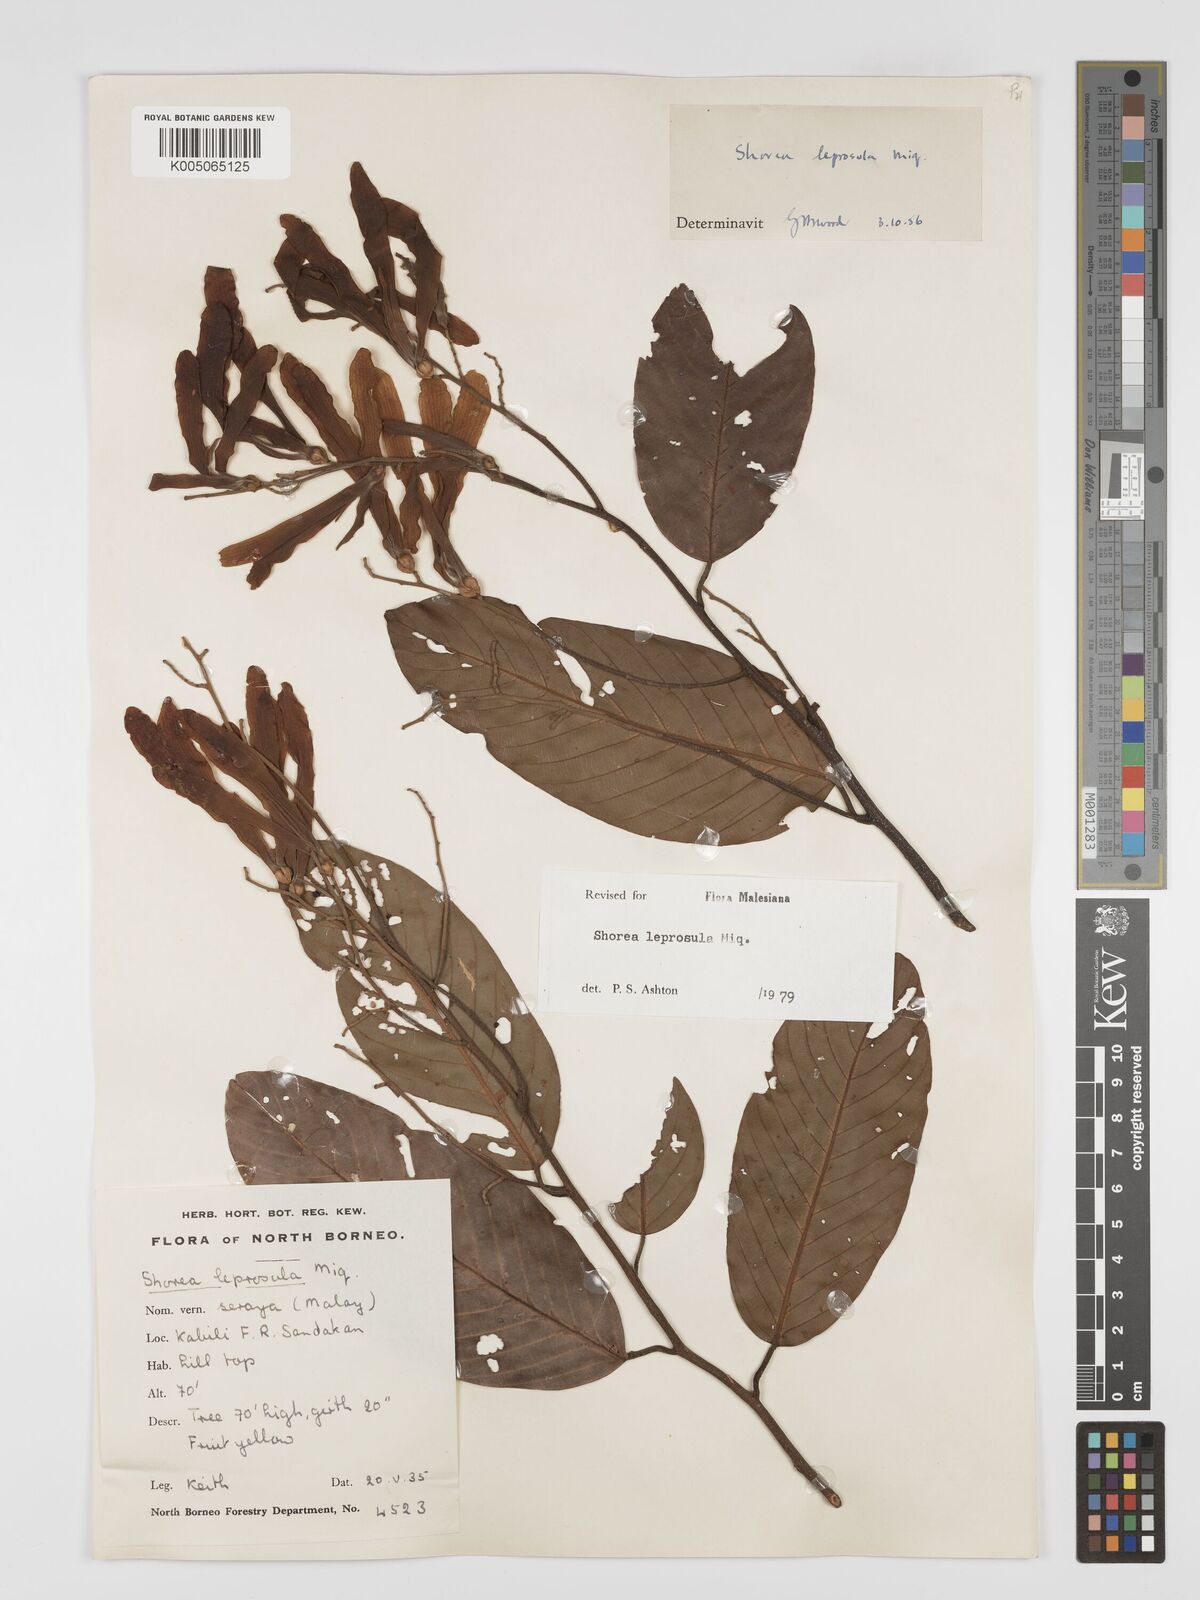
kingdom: Plantae
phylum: Tracheophyta
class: Magnoliopsida
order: Malvales
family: Dipterocarpaceae
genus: Shorea
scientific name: Shorea leprosula
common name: Light red meranti
